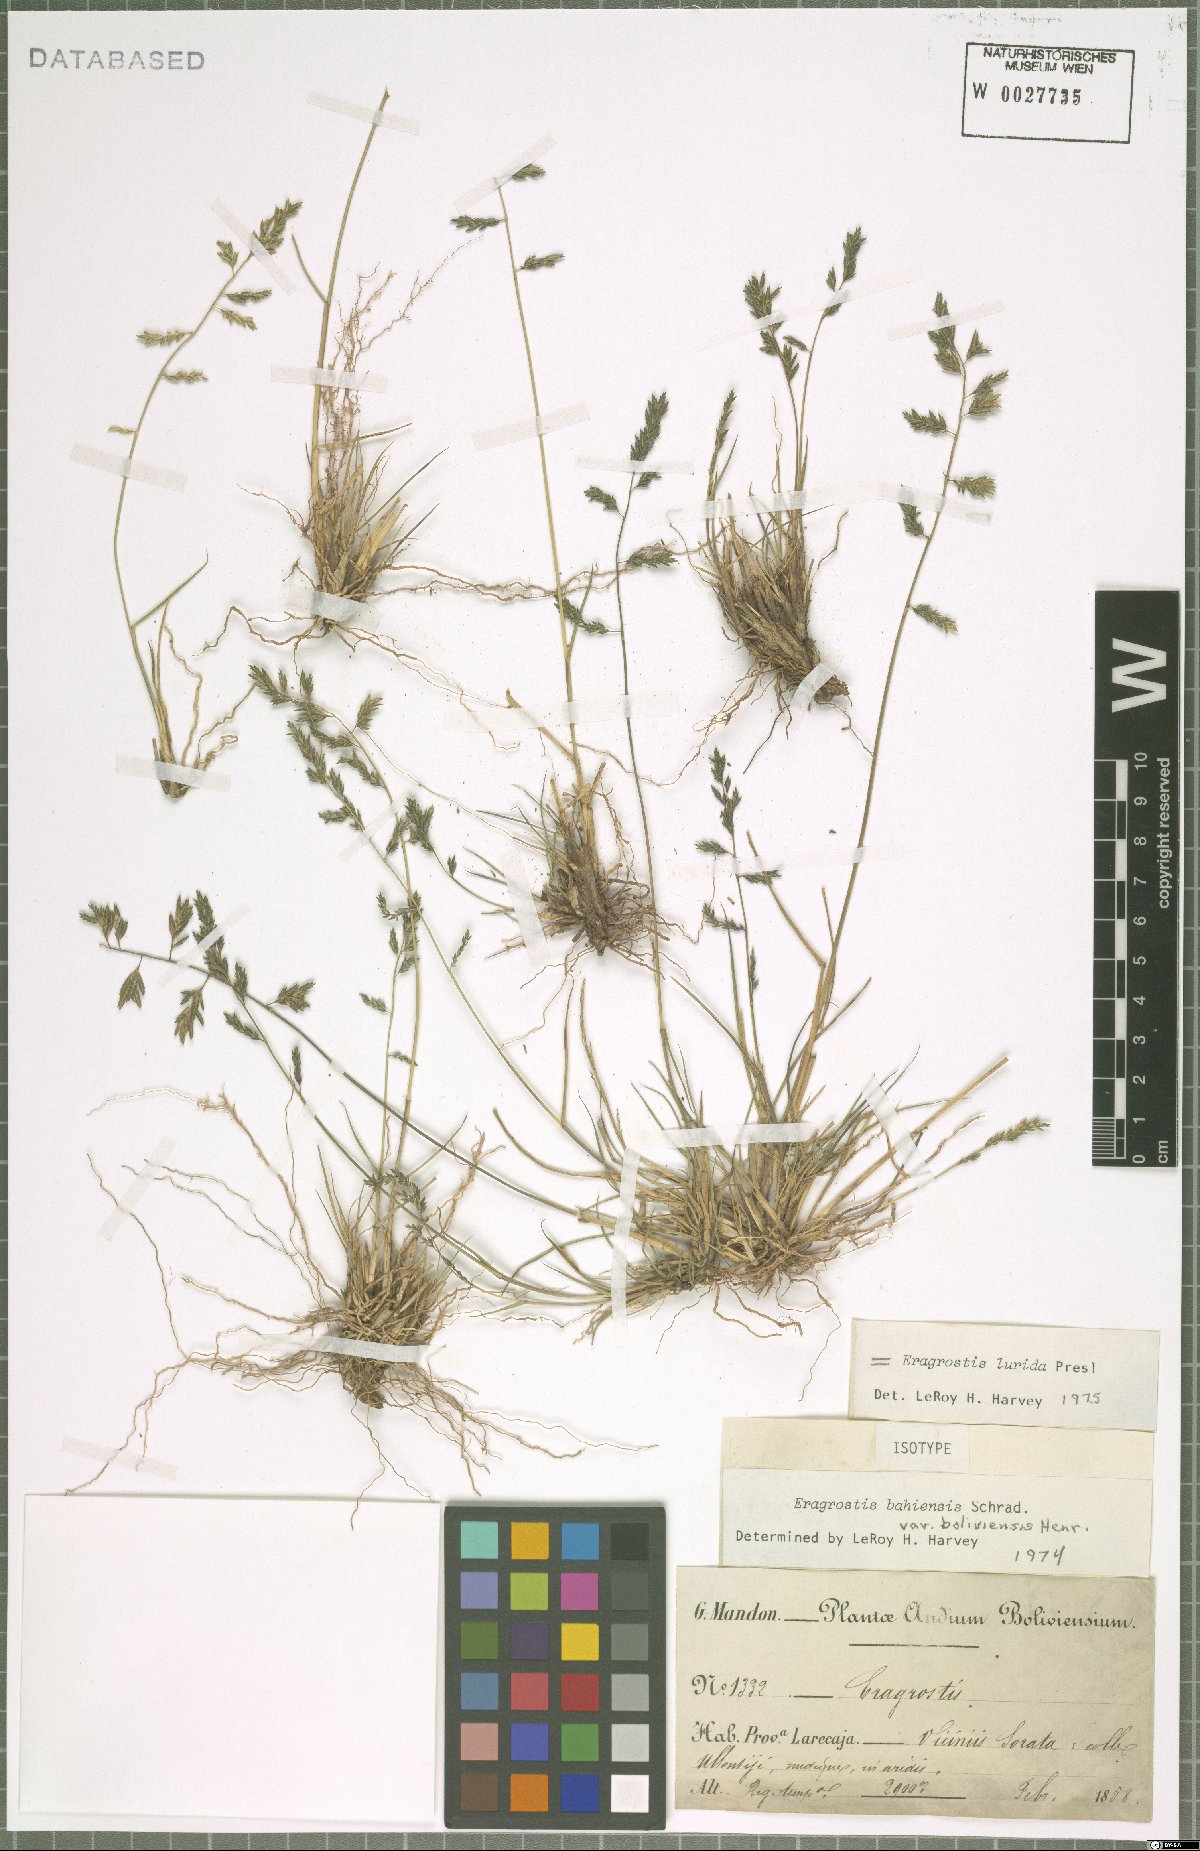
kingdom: Plantae
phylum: Tracheophyta
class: Liliopsida
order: Poales
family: Poaceae
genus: Eragrostis
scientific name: Eragrostis lurida
